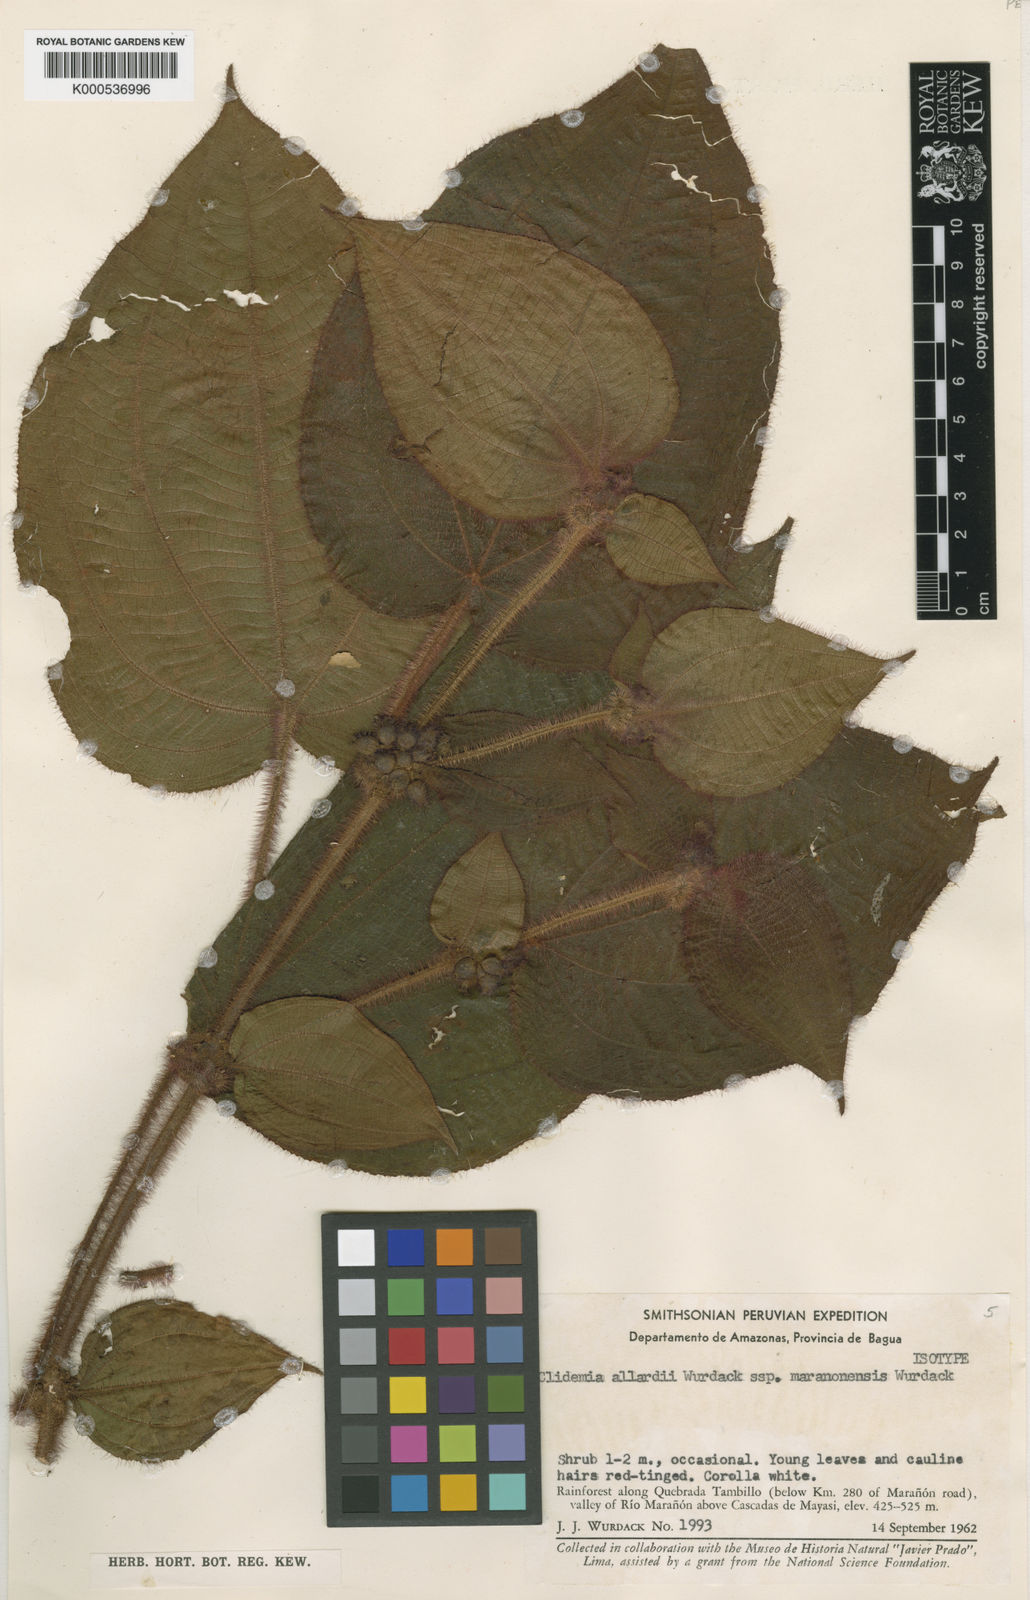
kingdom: Plantae
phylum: Tracheophyta
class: Magnoliopsida
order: Myrtales
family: Melastomataceae
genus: Miconia
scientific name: Miconia allardii
